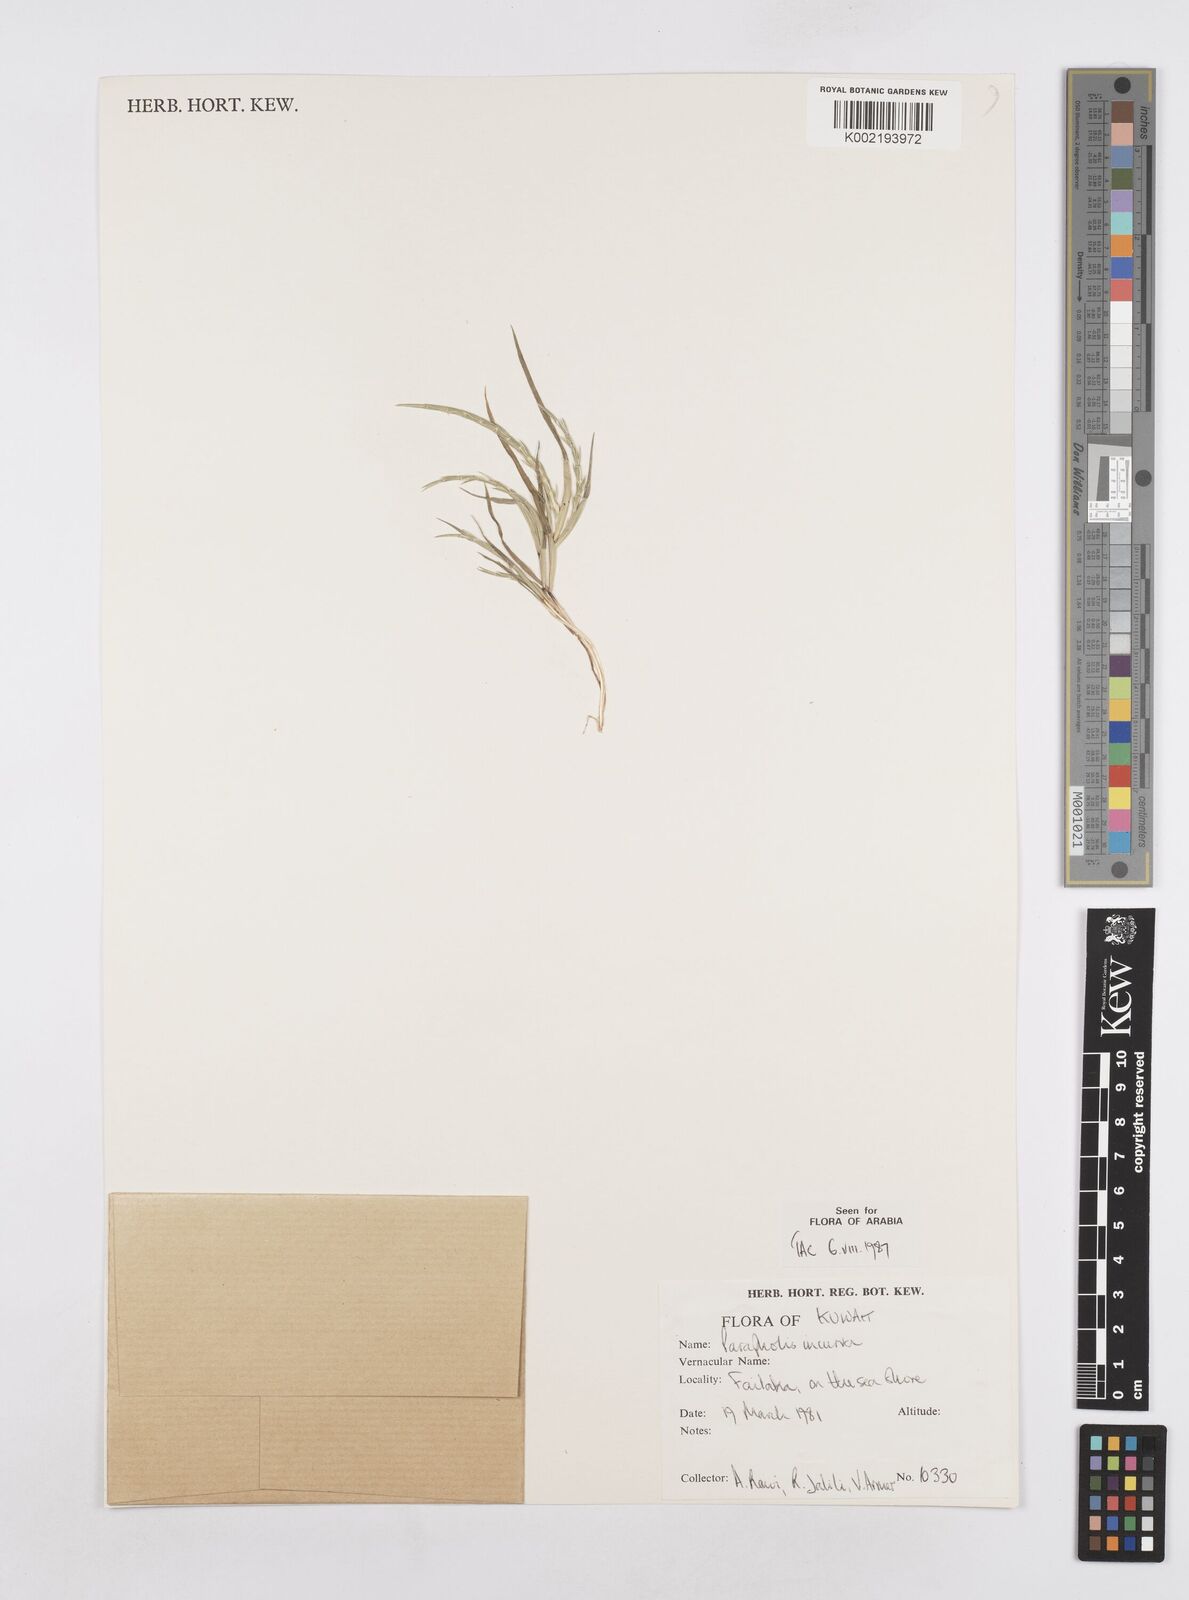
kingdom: Plantae
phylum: Tracheophyta
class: Liliopsida
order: Poales
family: Poaceae
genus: Parapholis
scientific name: Parapholis incurva
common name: Curved sicklegrass
